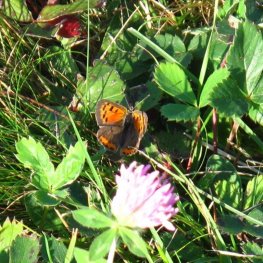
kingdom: Animalia
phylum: Arthropoda
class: Insecta
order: Lepidoptera
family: Lycaenidae
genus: Lycaena
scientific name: Lycaena phlaeas
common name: American Copper
